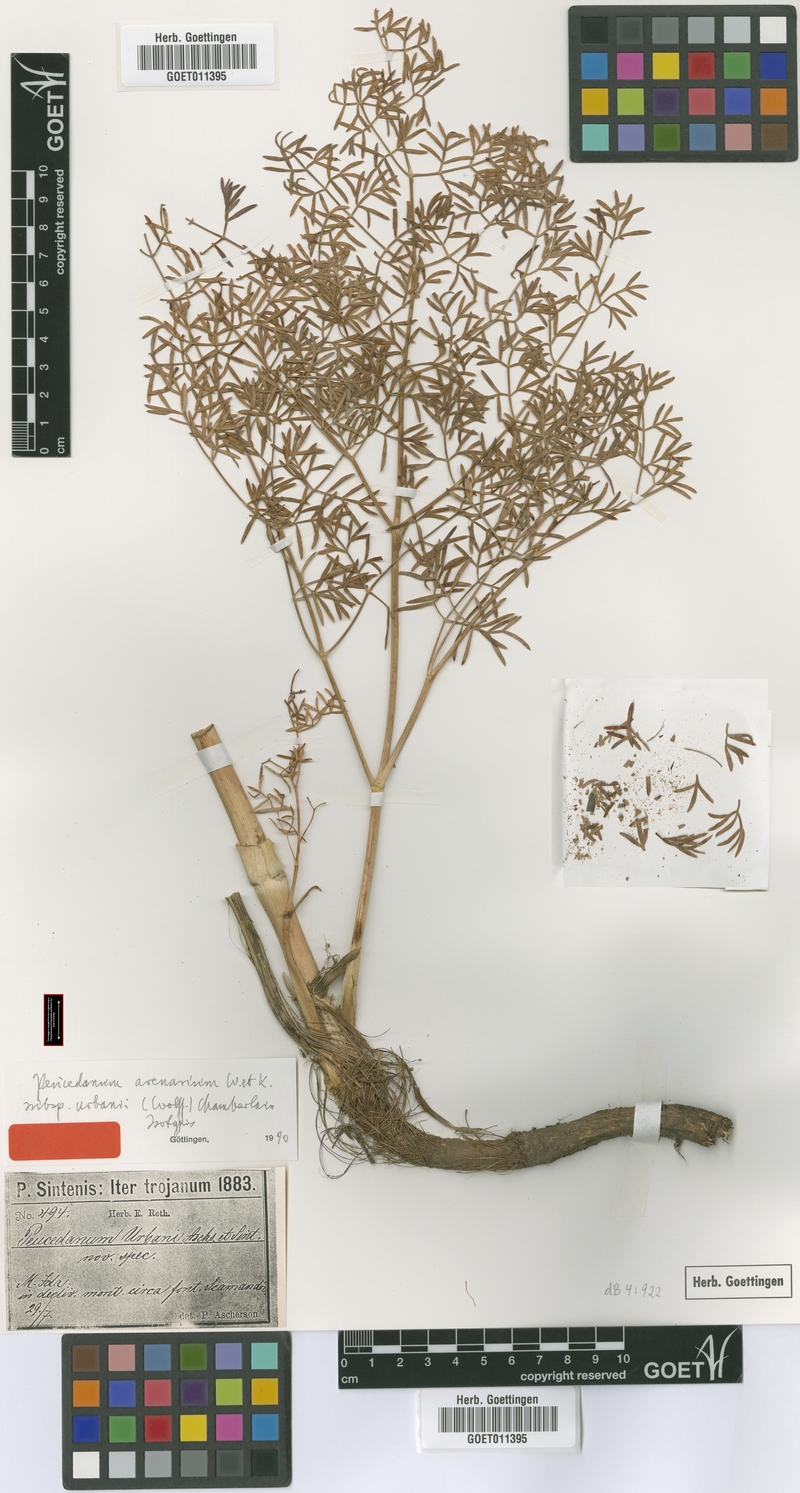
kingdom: Plantae
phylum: Tracheophyta
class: Magnoliopsida
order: Apiales
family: Apiaceae
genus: Taeniopetalum
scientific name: Taeniopetalum urbani
